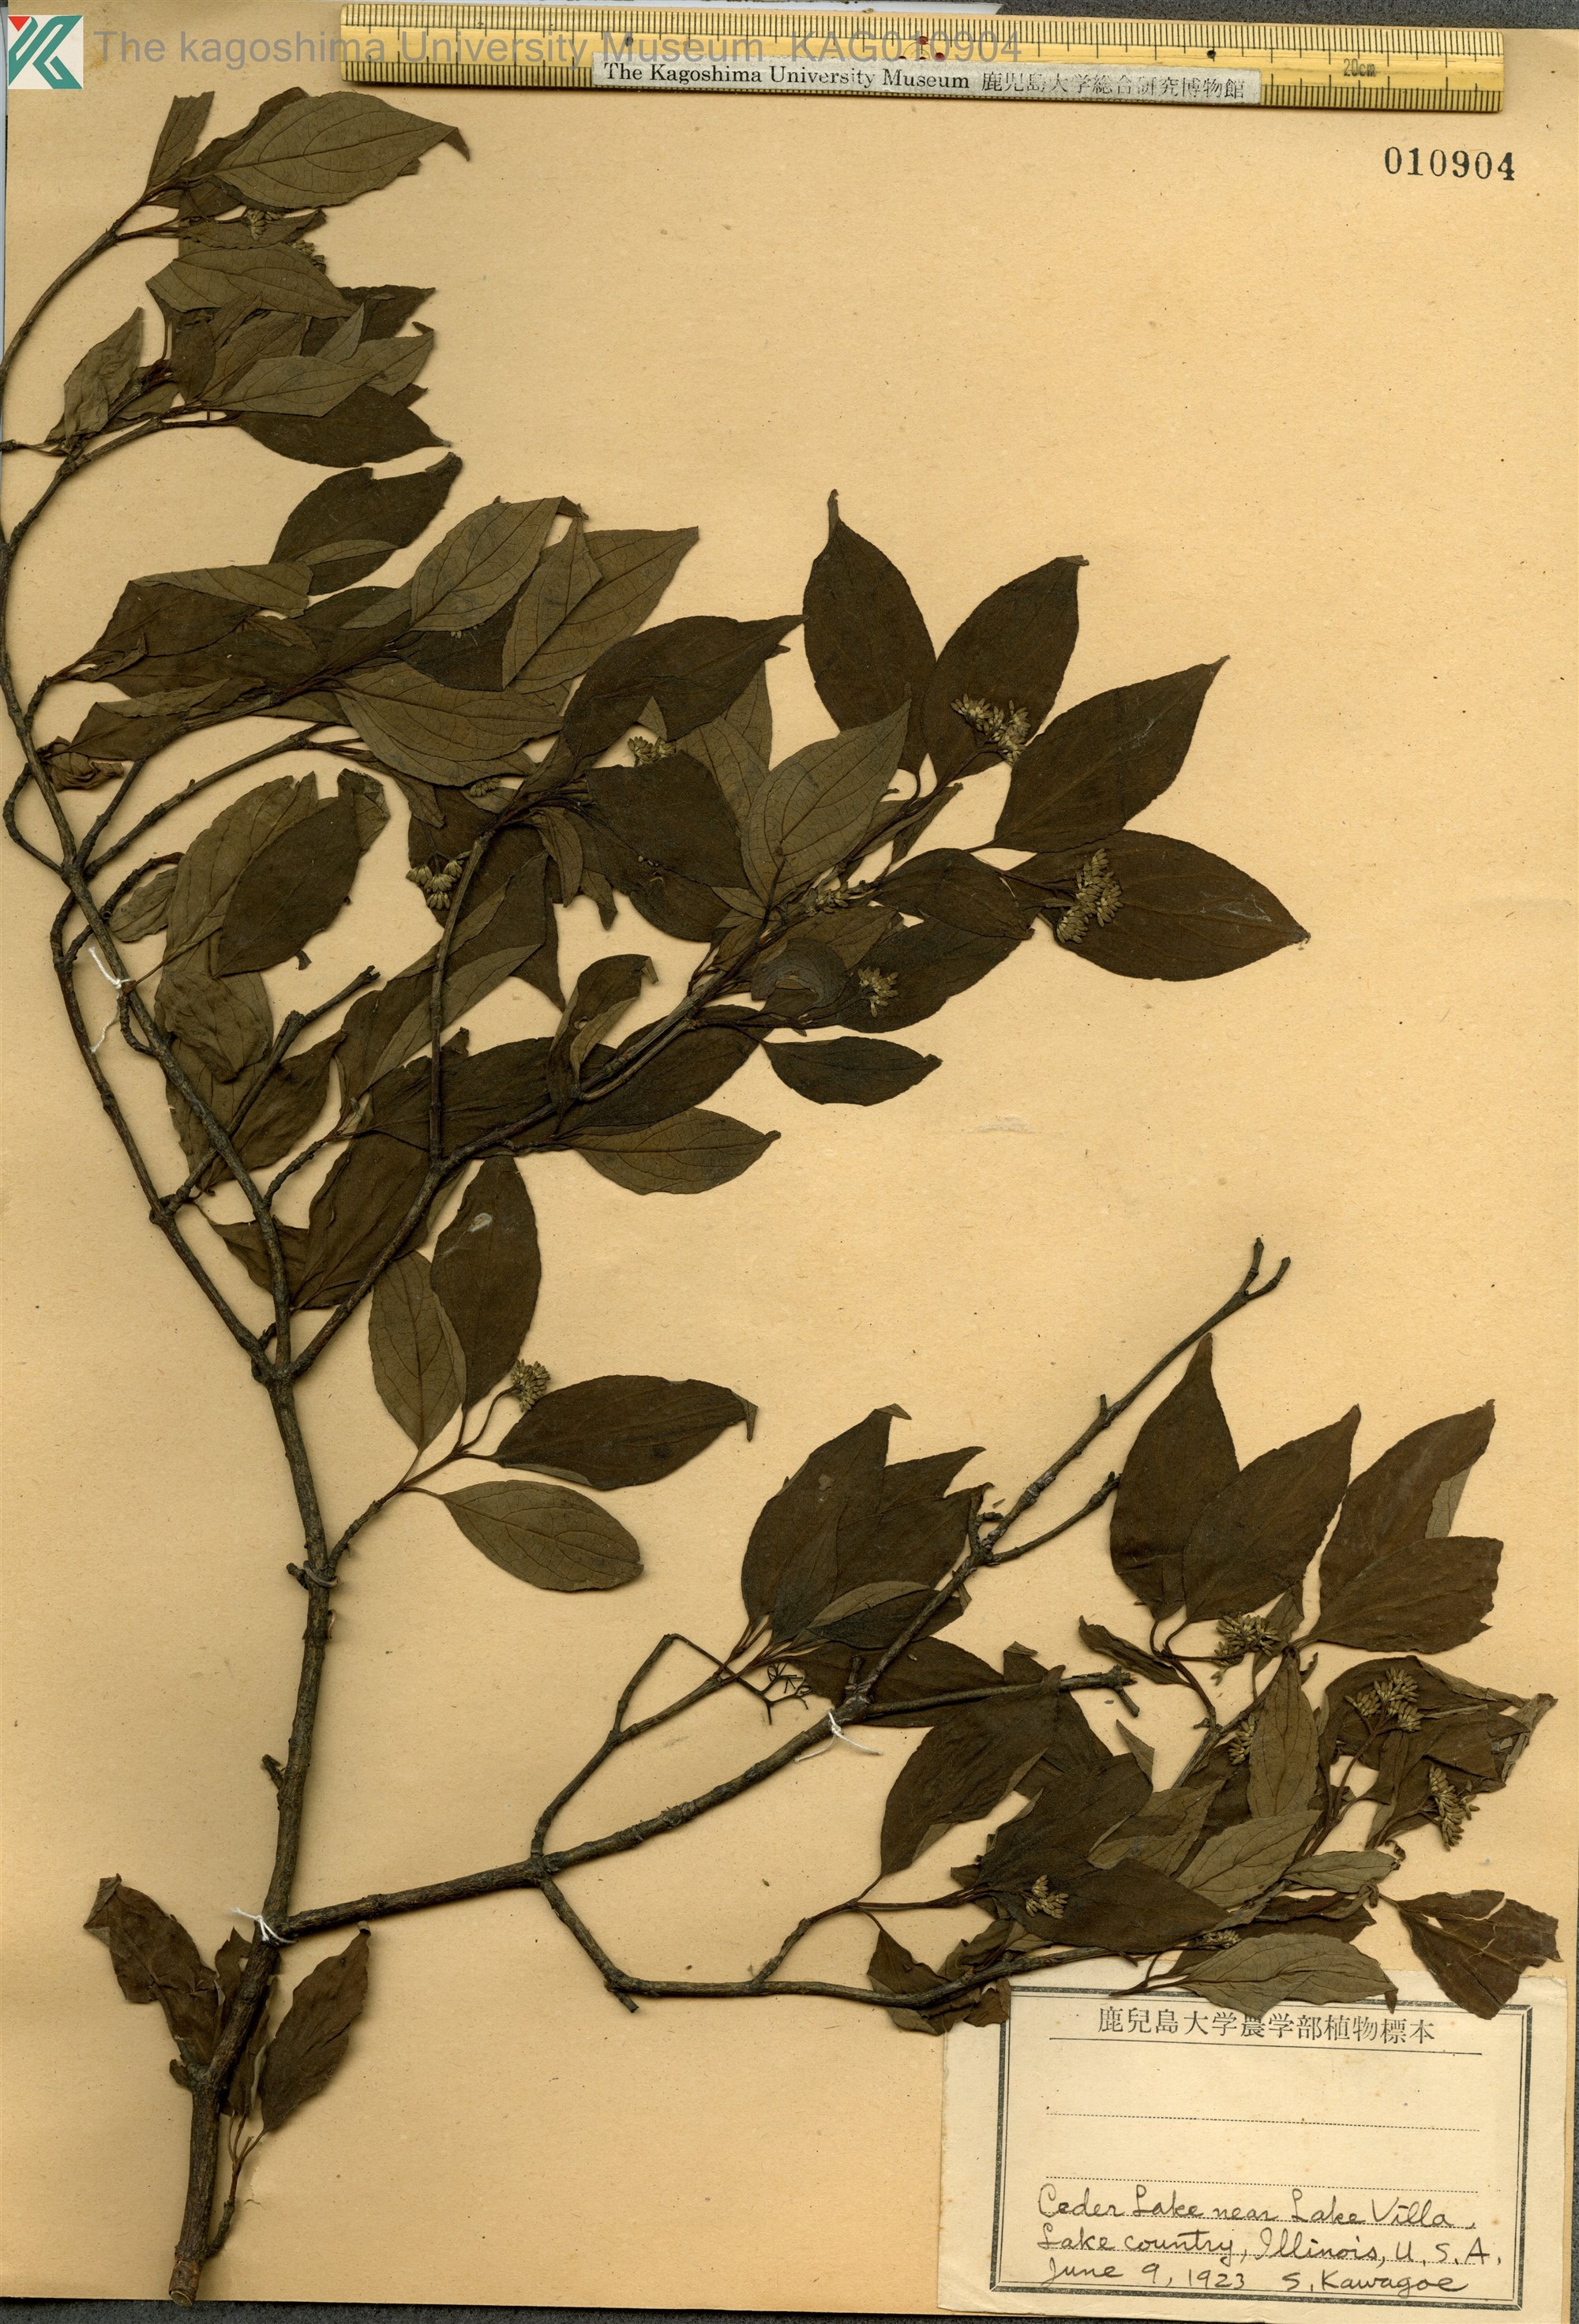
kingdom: Plantae
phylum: Tracheophyta
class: Magnoliopsida
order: Cornales
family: Cornaceae
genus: Cornus
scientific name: Cornus
